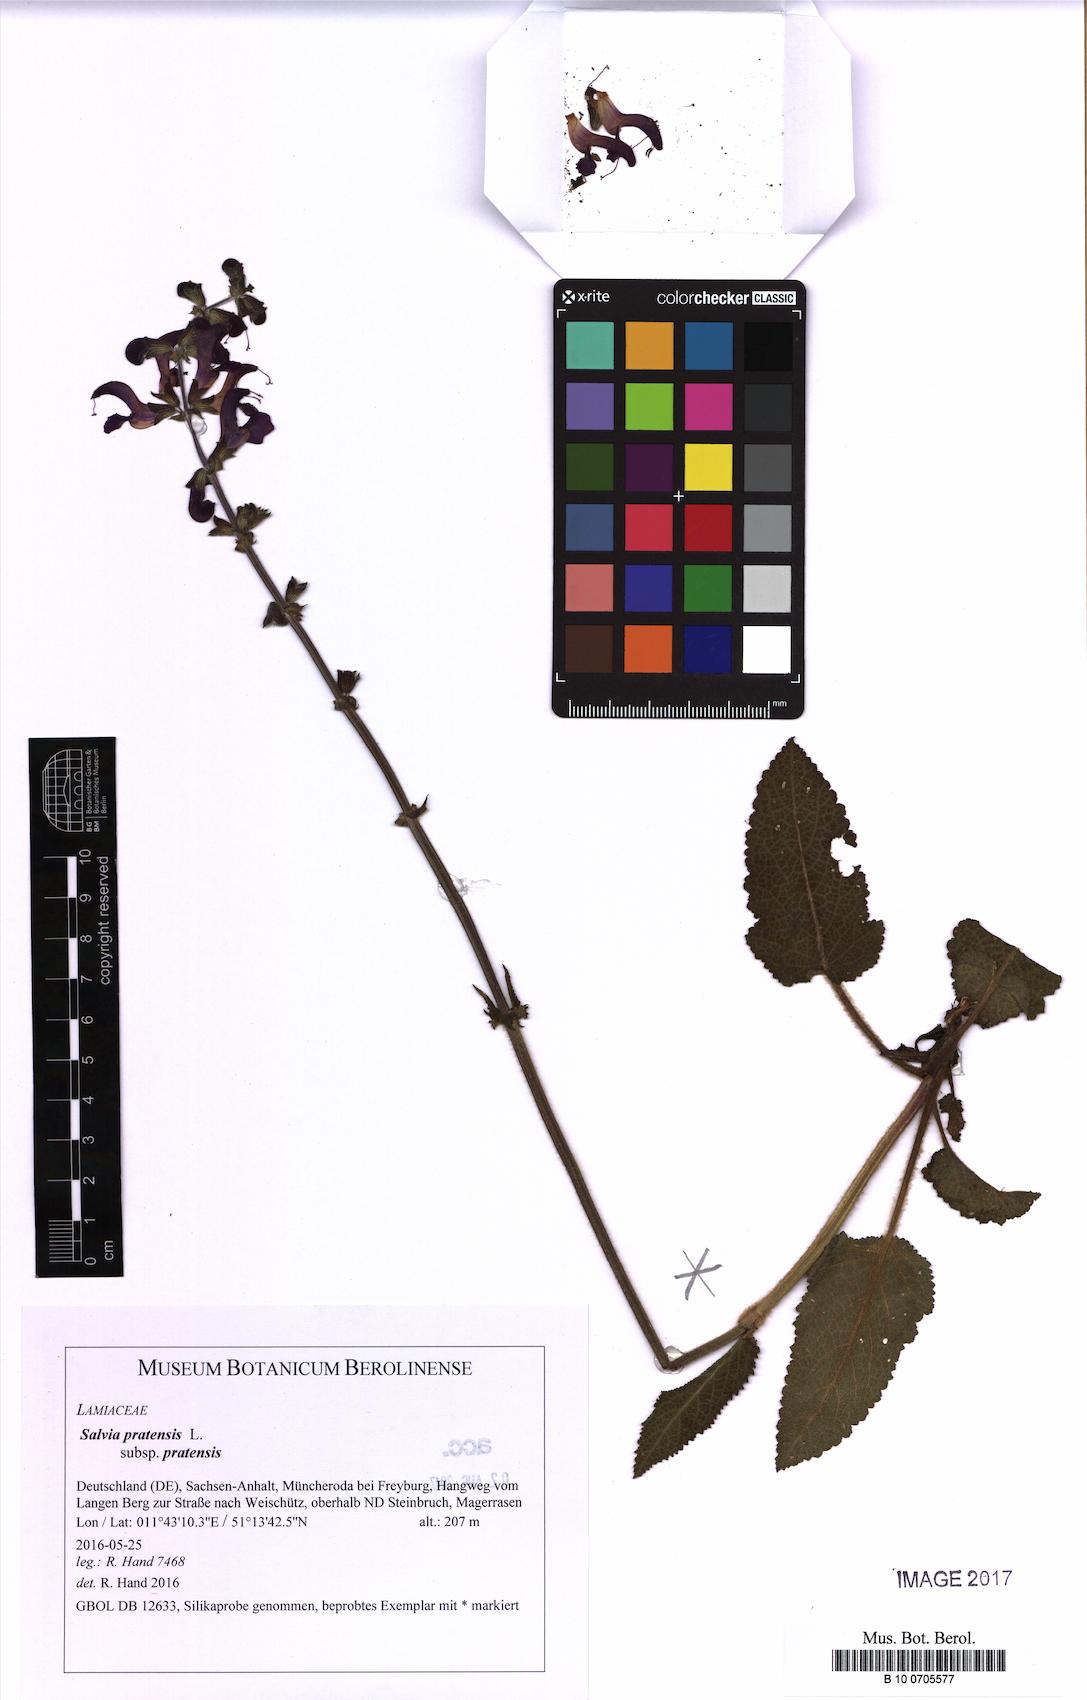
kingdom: Plantae
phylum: Tracheophyta
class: Magnoliopsida
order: Lamiales
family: Lamiaceae
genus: Salvia
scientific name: Salvia pratensis
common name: Meadow sage
